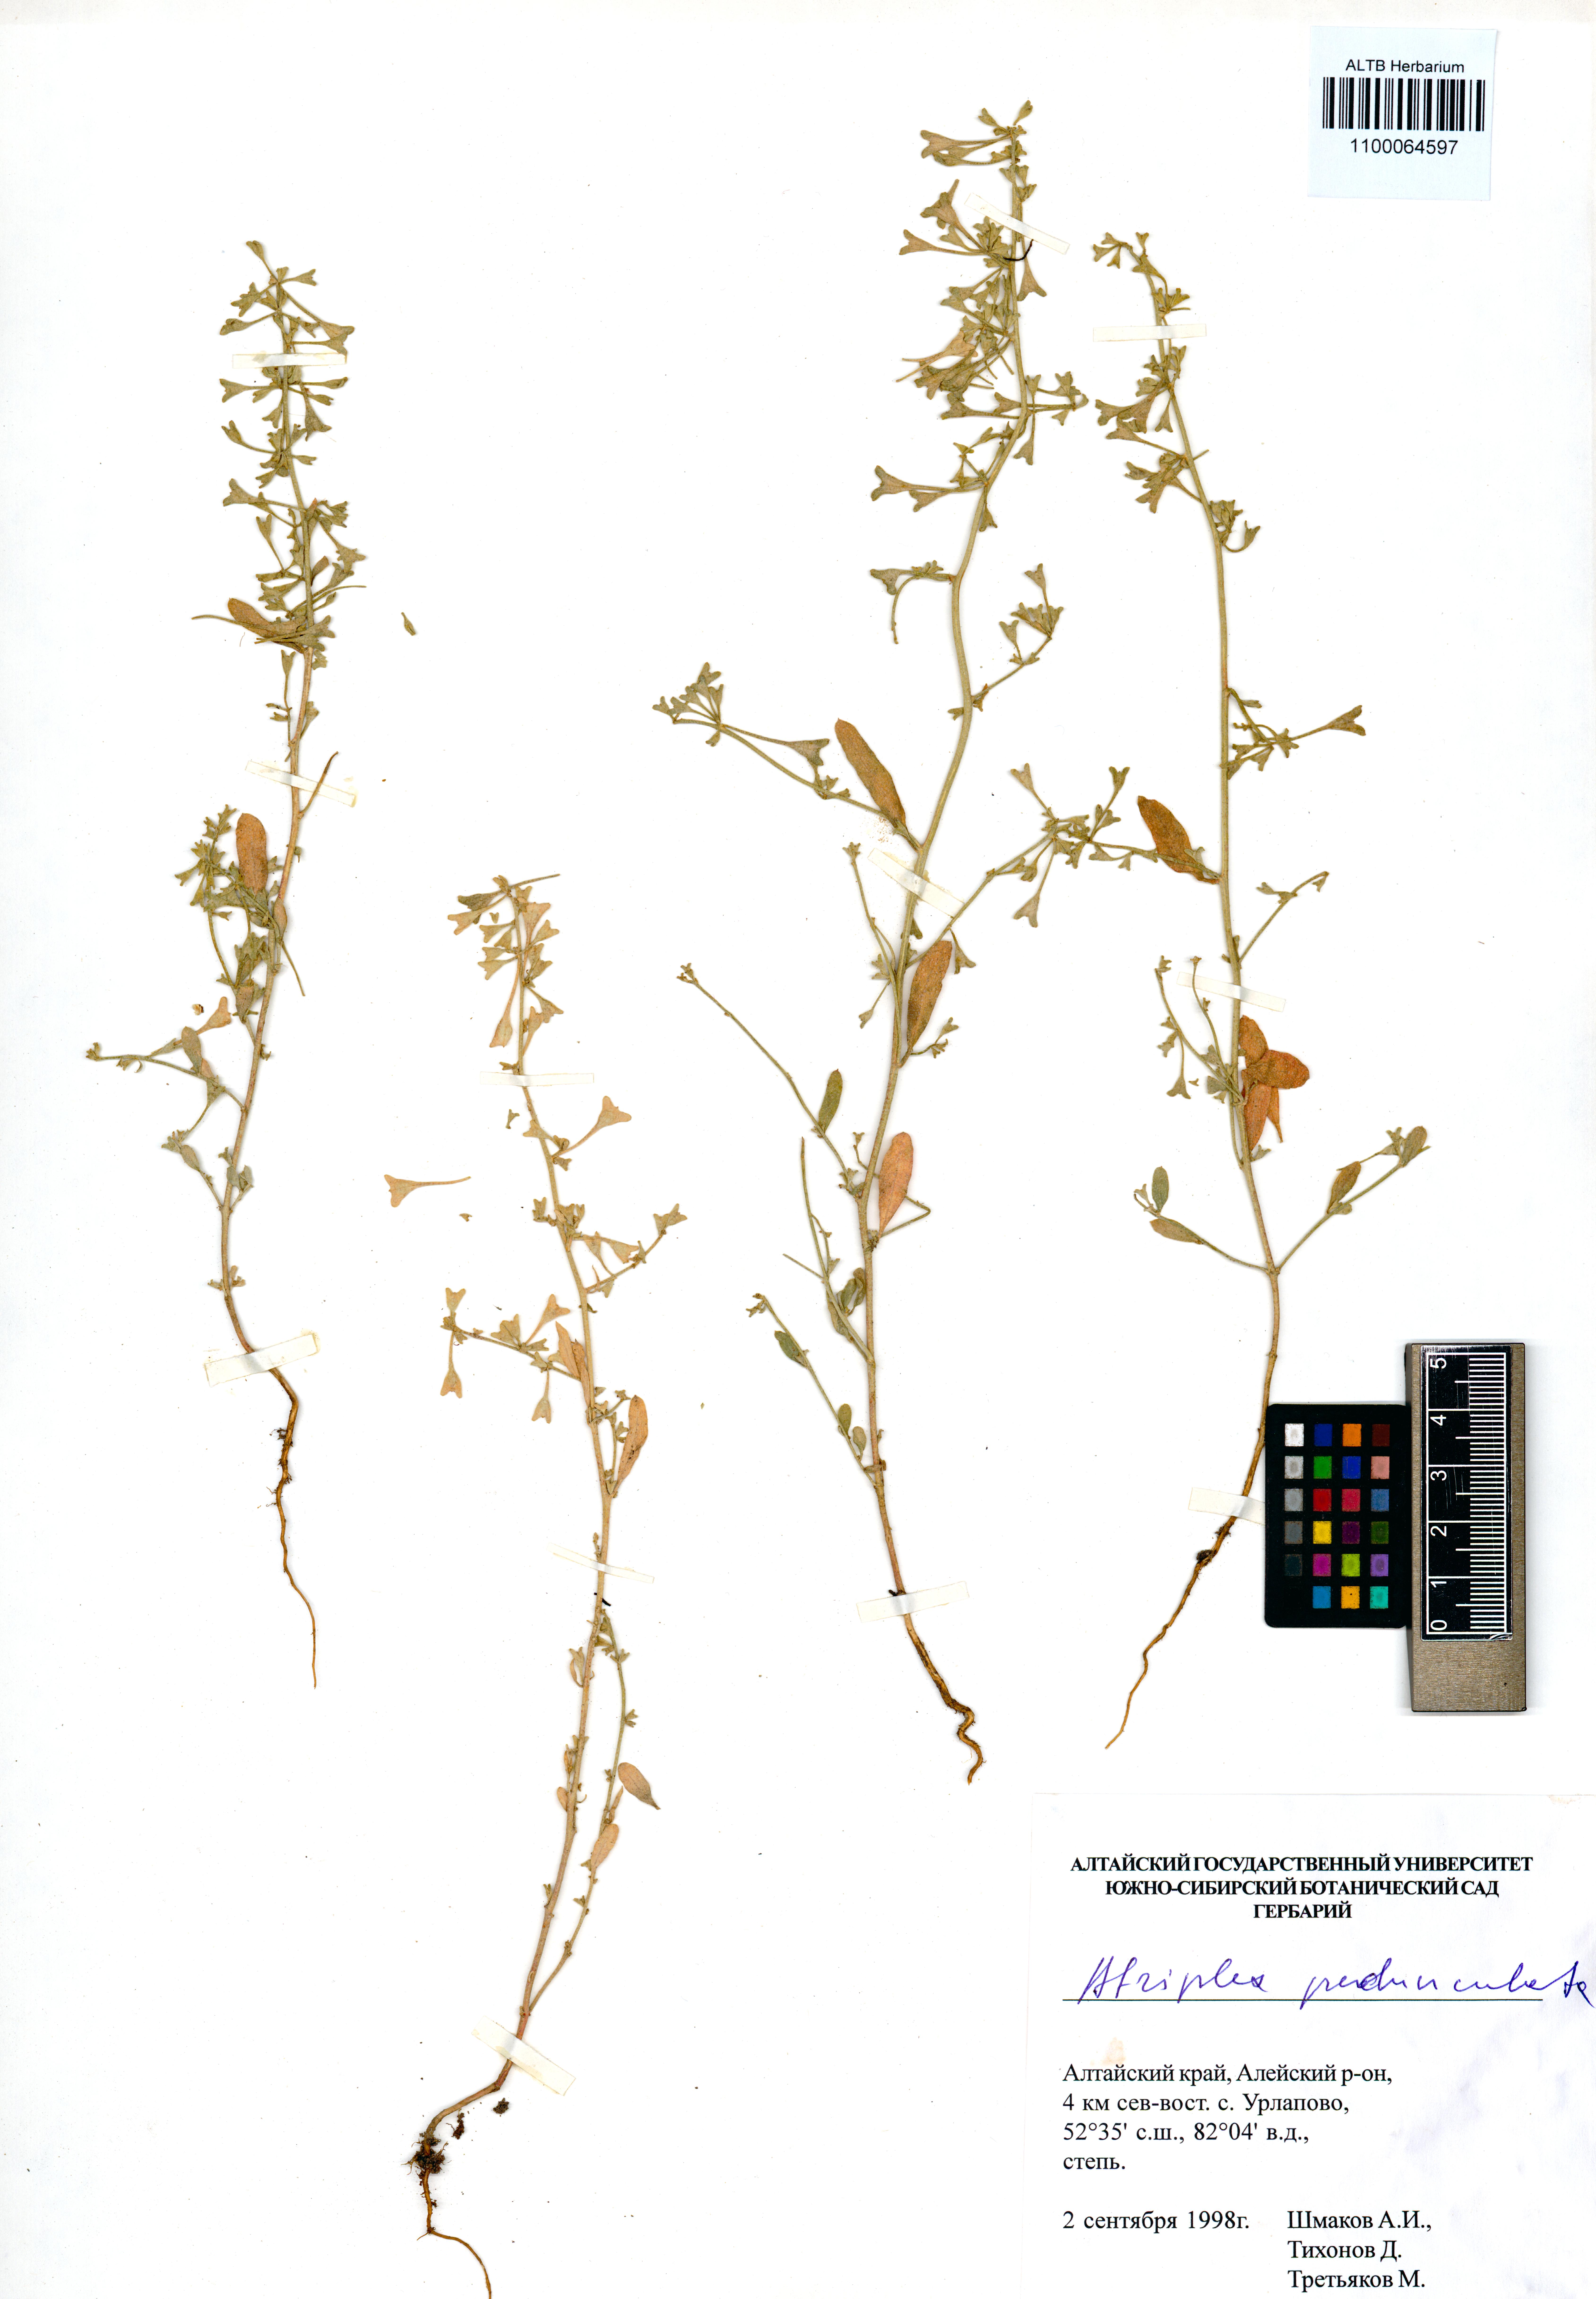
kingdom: Plantae
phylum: Tracheophyta
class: Magnoliopsida
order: Caryophyllales
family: Amaranthaceae
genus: Halimione
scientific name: Halimione pedunculata
